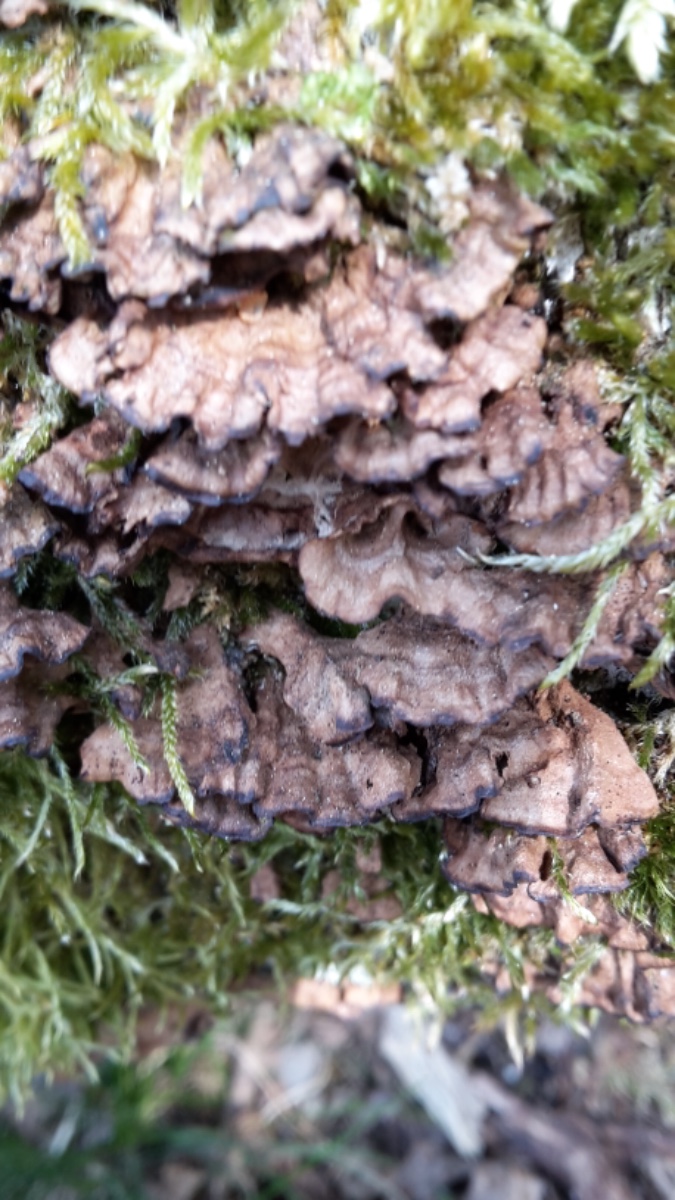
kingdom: Fungi
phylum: Basidiomycota
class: Agaricomycetes
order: Agaricales
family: Cyphellaceae
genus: Chondrostereum
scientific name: Chondrostereum purpureum
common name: purpurlædersvamp
